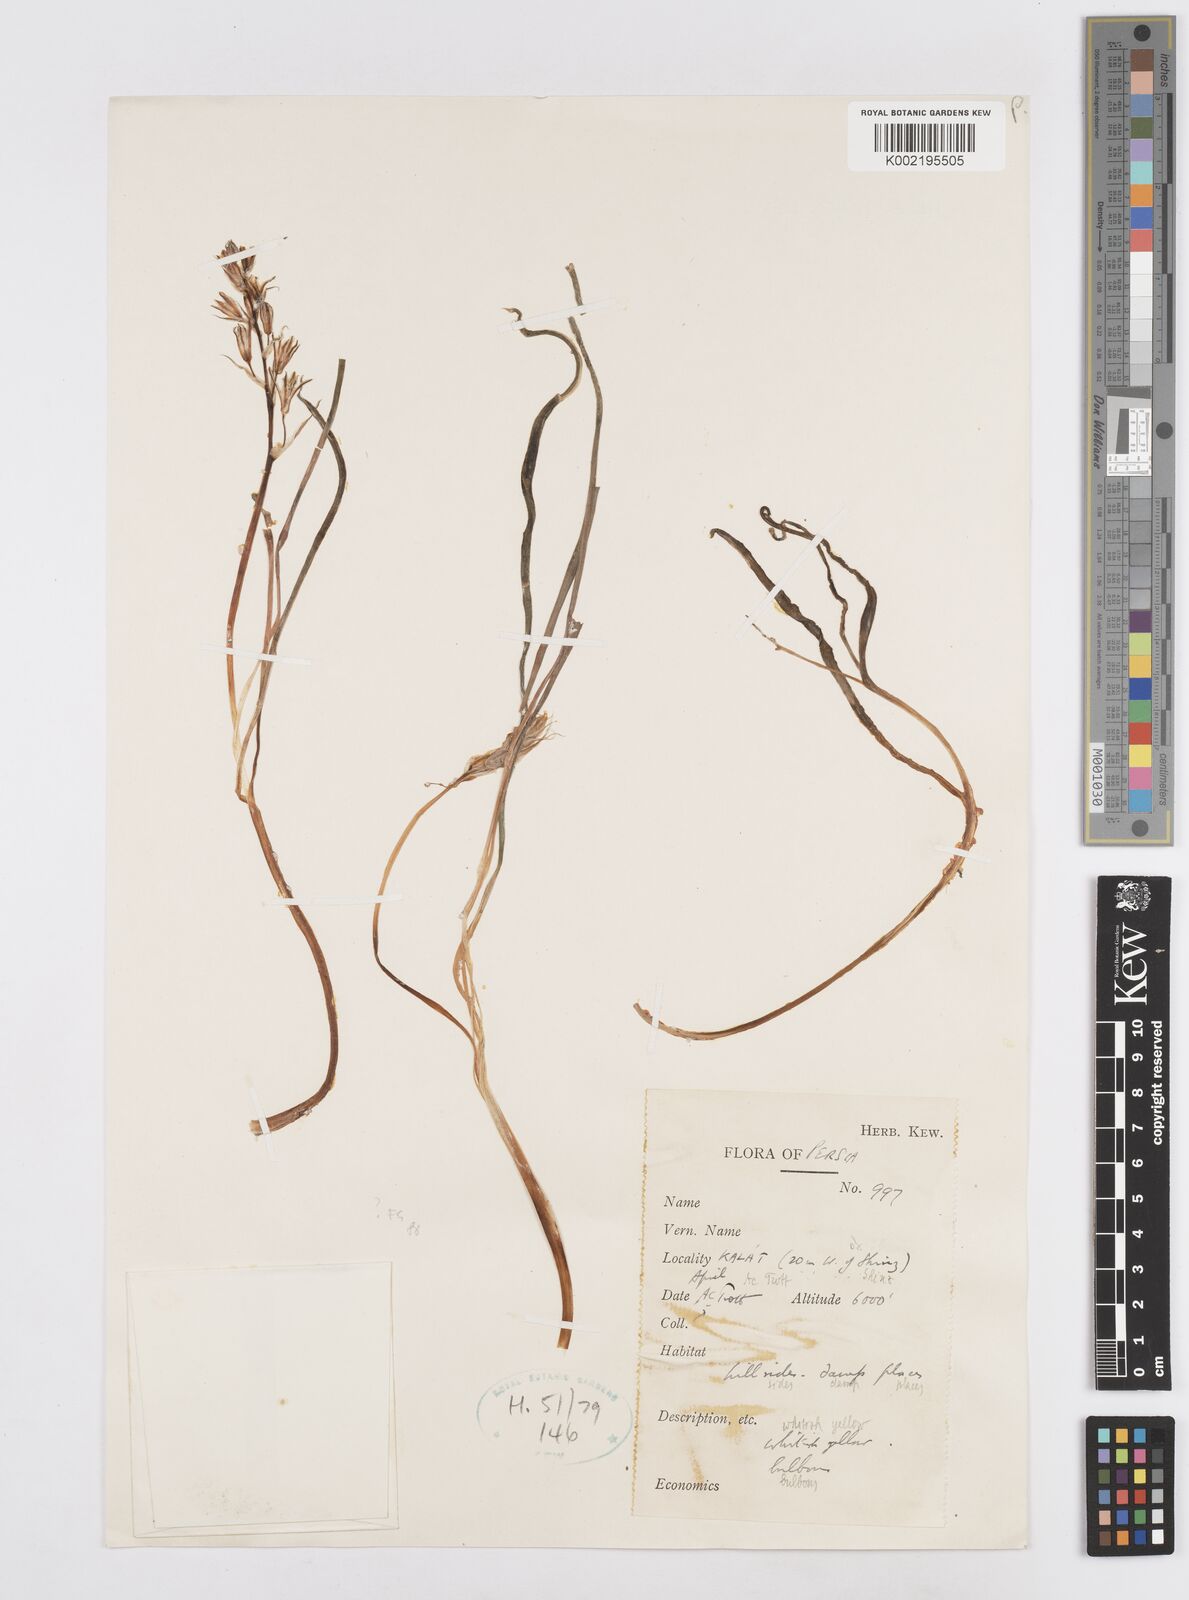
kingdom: Plantae
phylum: Tracheophyta
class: Liliopsida
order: Asparagales
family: Asparagaceae
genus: Ornithogalum
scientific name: Ornithogalum
